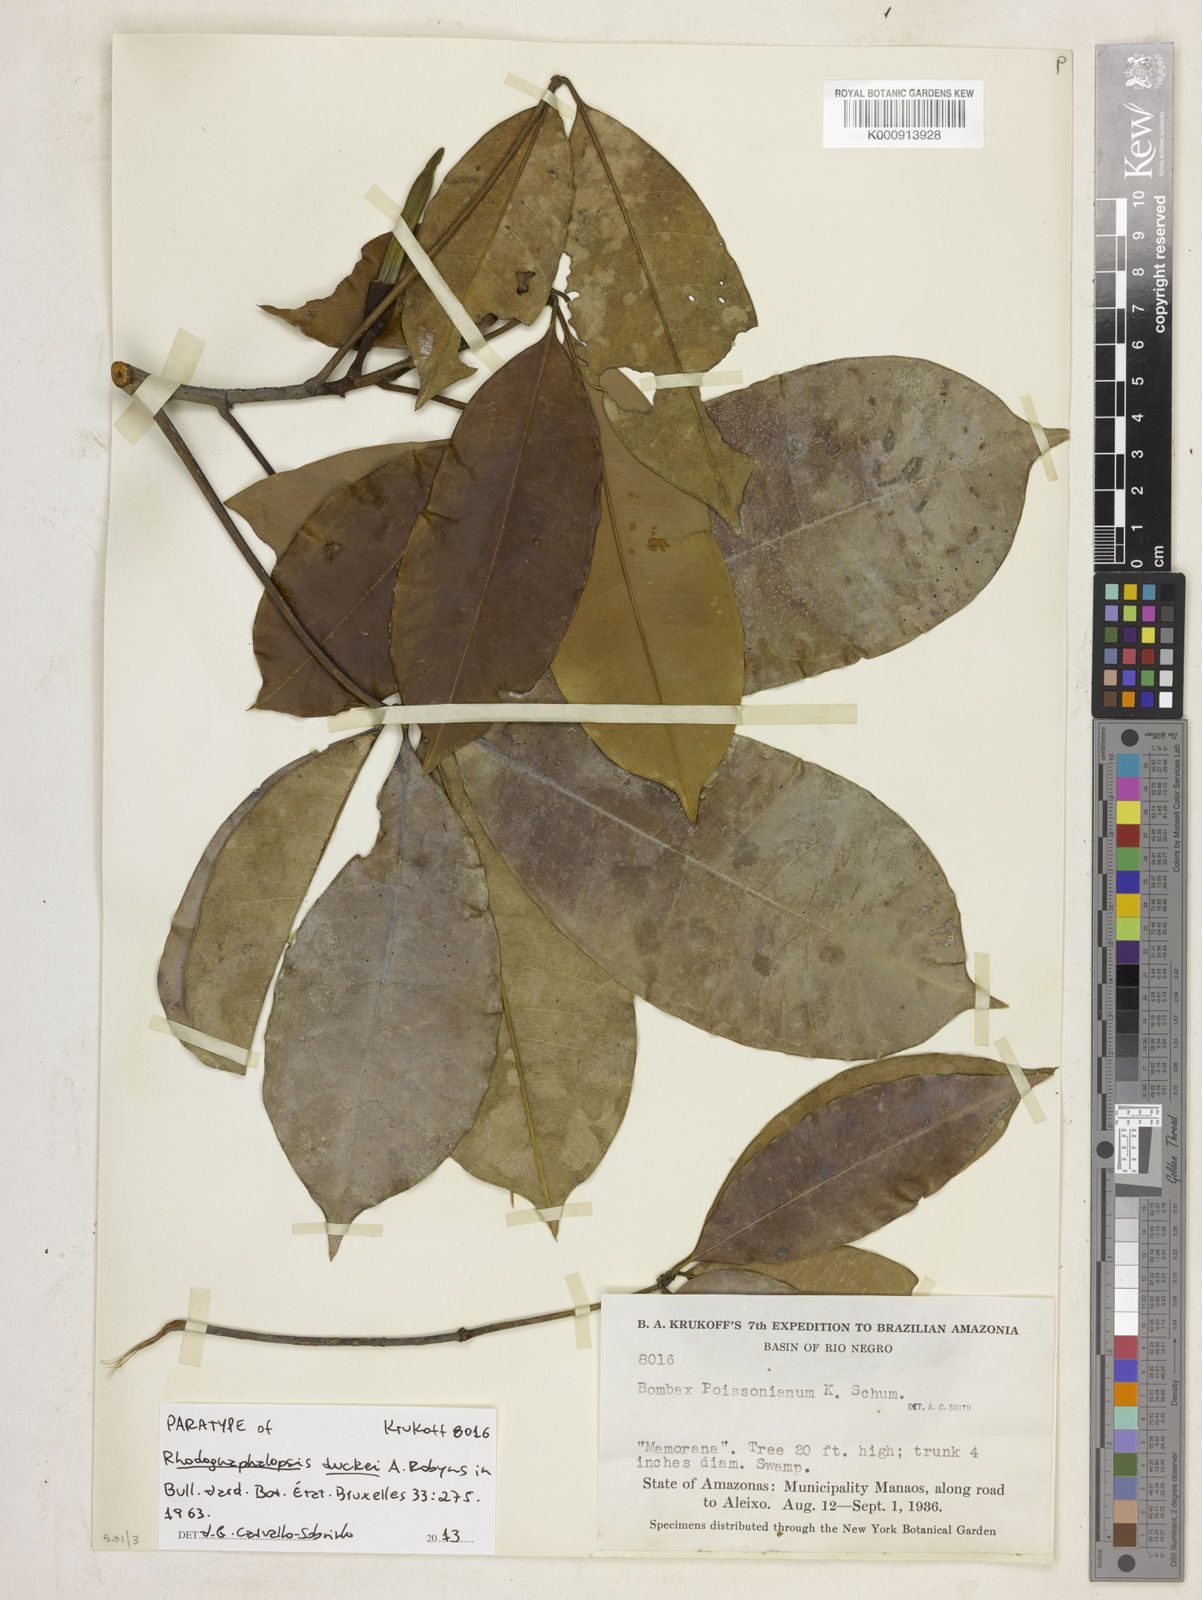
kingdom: Plantae
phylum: Tracheophyta
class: Magnoliopsida
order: Malvales
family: Malvaceae
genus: Pachira
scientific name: Pachira duckei
